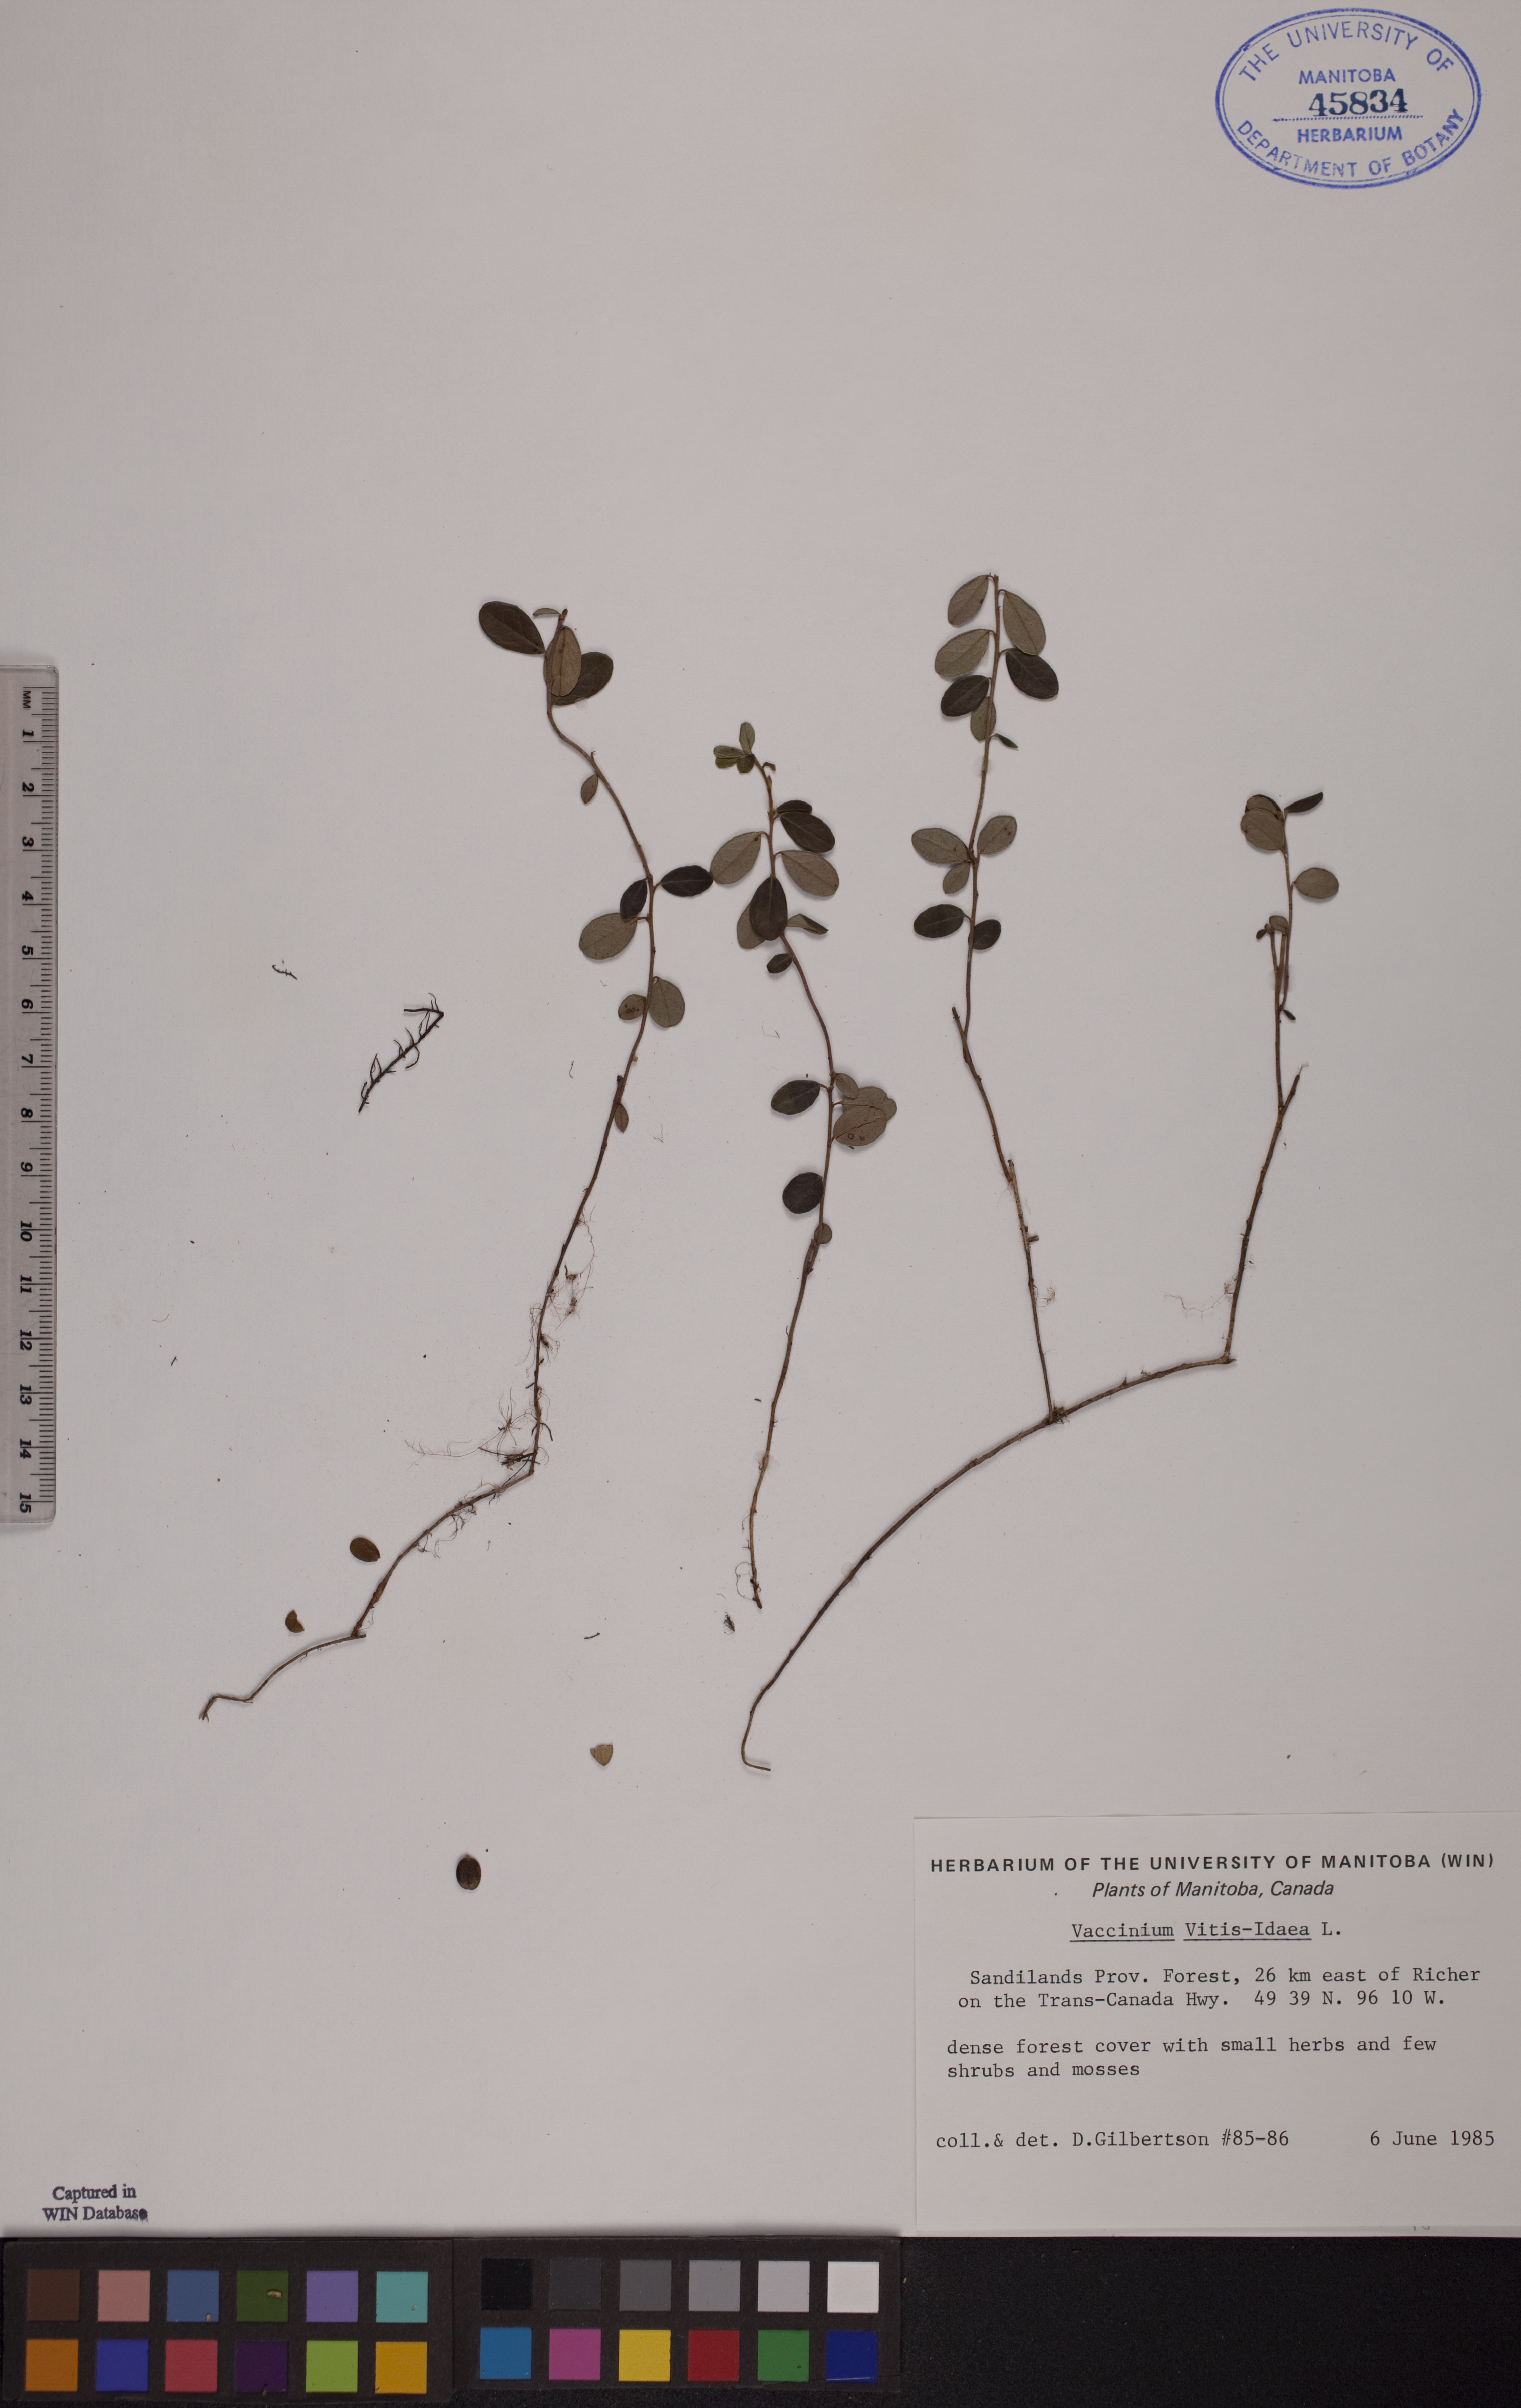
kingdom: Plantae
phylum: Tracheophyta
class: Magnoliopsida
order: Ericales
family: Ericaceae
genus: Vaccinium
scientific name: Vaccinium vitis-idaea
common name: Cowberry
